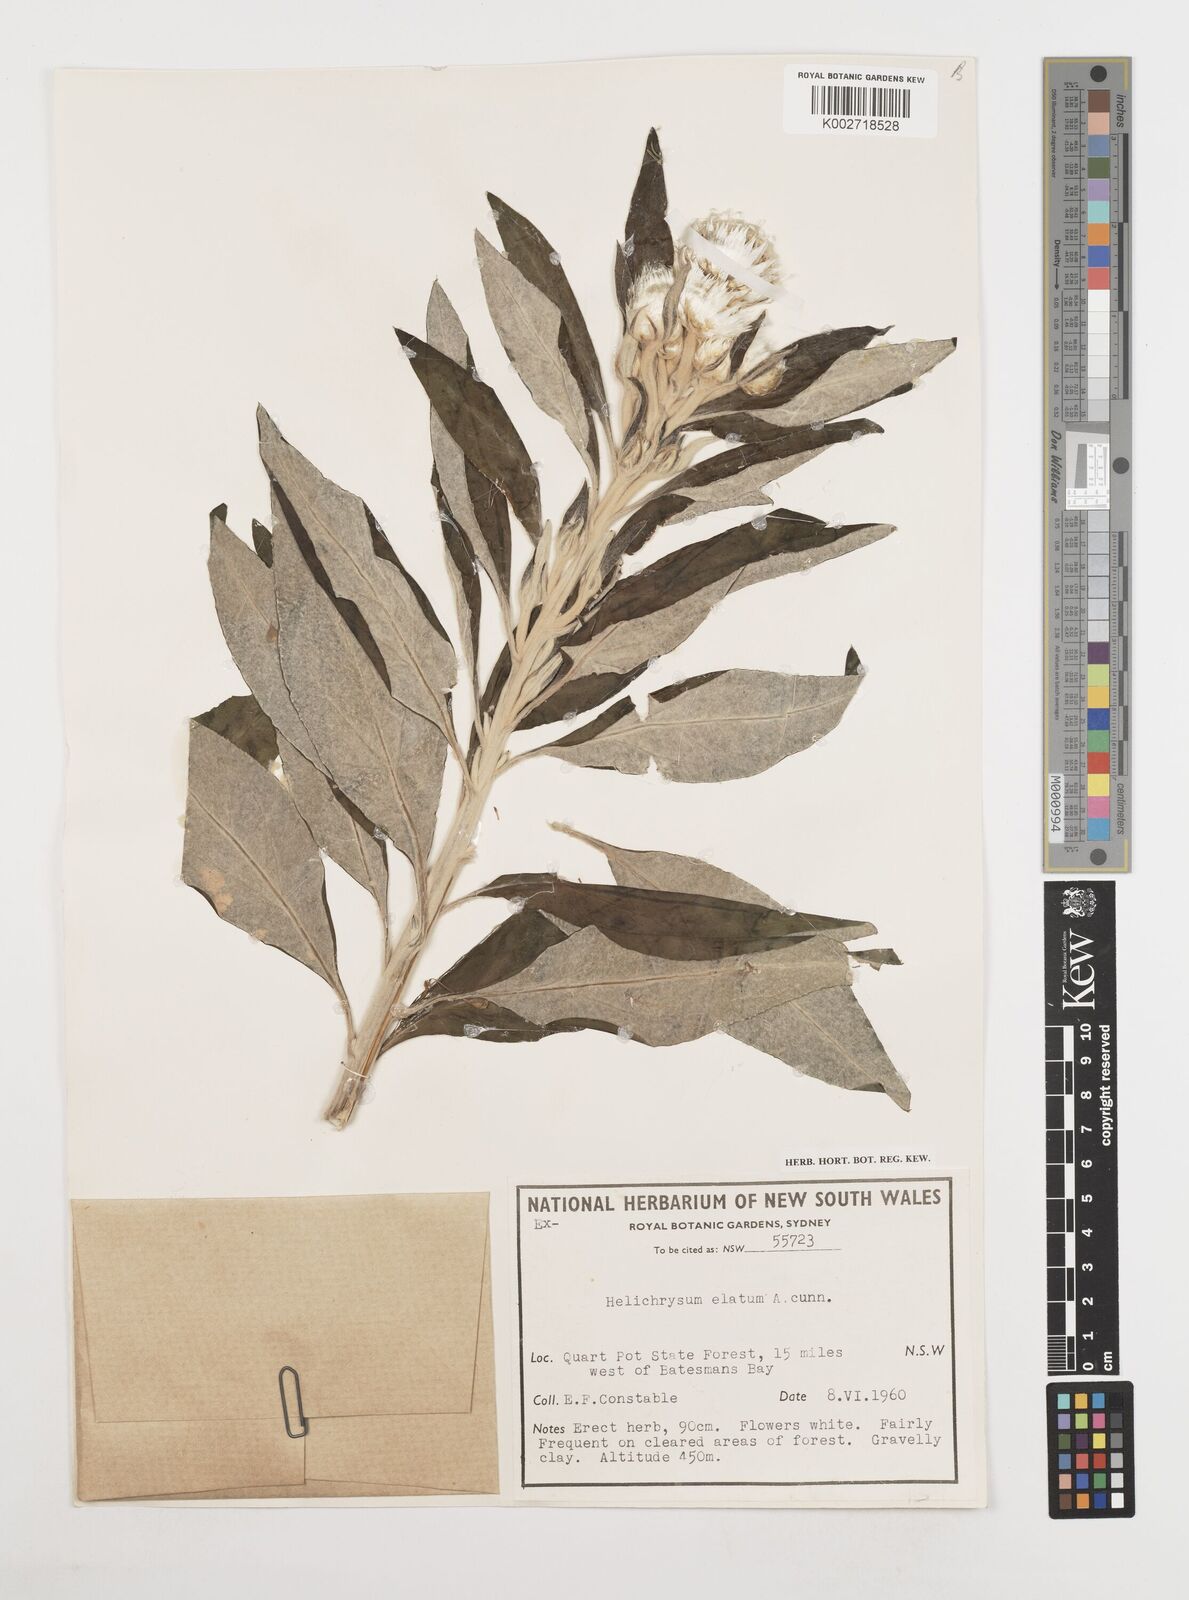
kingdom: Plantae
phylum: Tracheophyta
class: Magnoliopsida
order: Asterales
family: Asteraceae
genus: Leucozoma
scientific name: Leucozoma elatum
